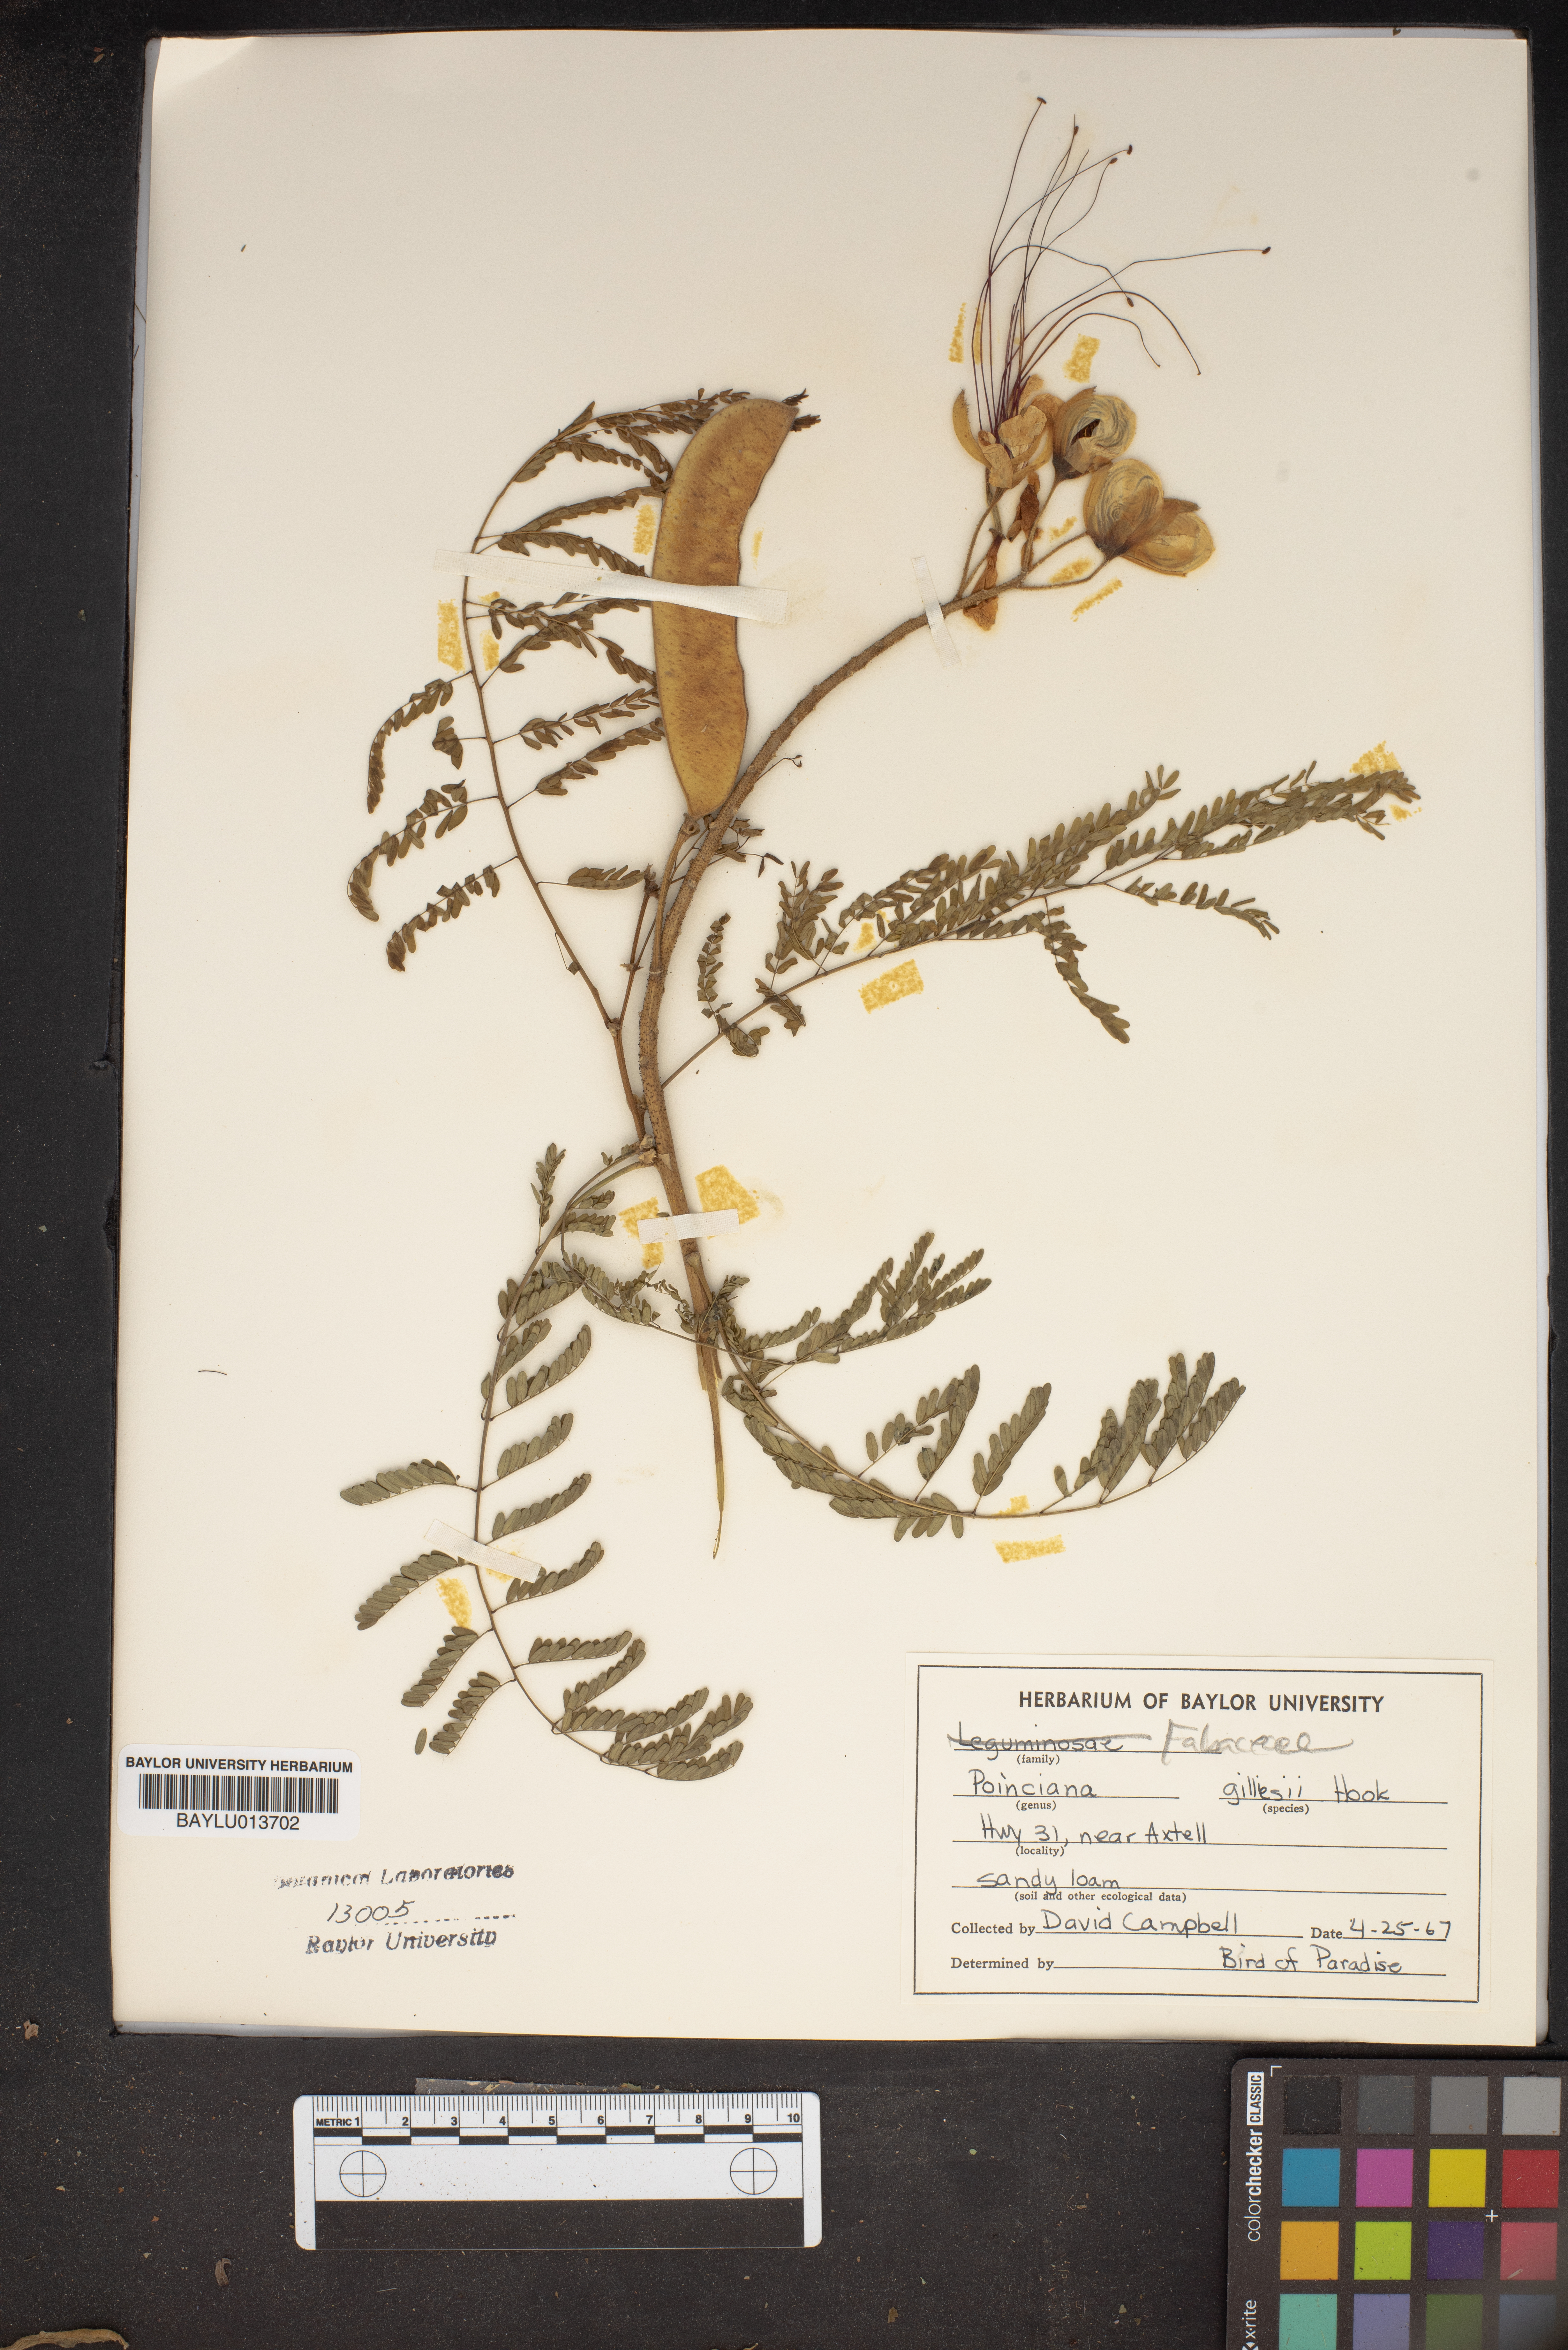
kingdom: Plantae
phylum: Tracheophyta
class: Magnoliopsida
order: Fabales
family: Fabaceae
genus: Erythrostemon
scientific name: Erythrostemon gilliesii
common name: Bird-of-paradise shrub
